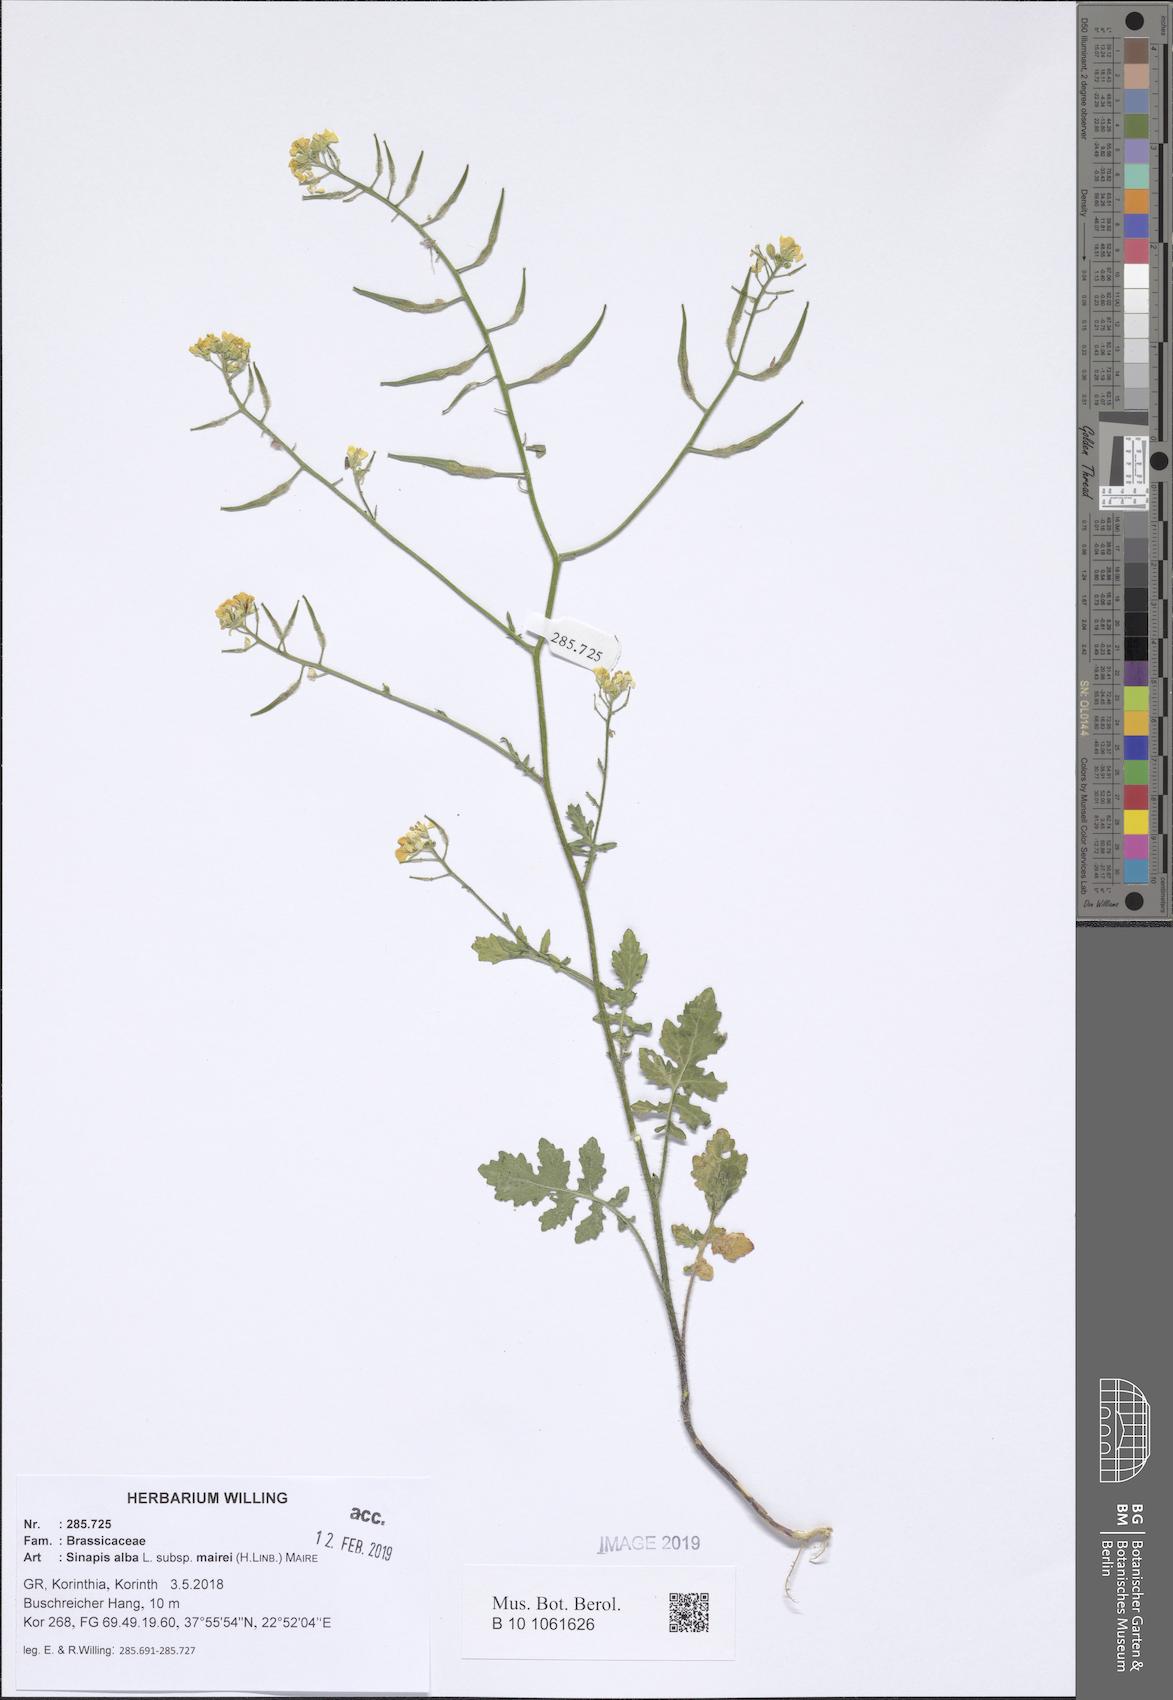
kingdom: Plantae
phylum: Tracheophyta
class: Magnoliopsida
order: Brassicales
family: Brassicaceae
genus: Sinapis
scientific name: Sinapis alba
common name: White mustard
